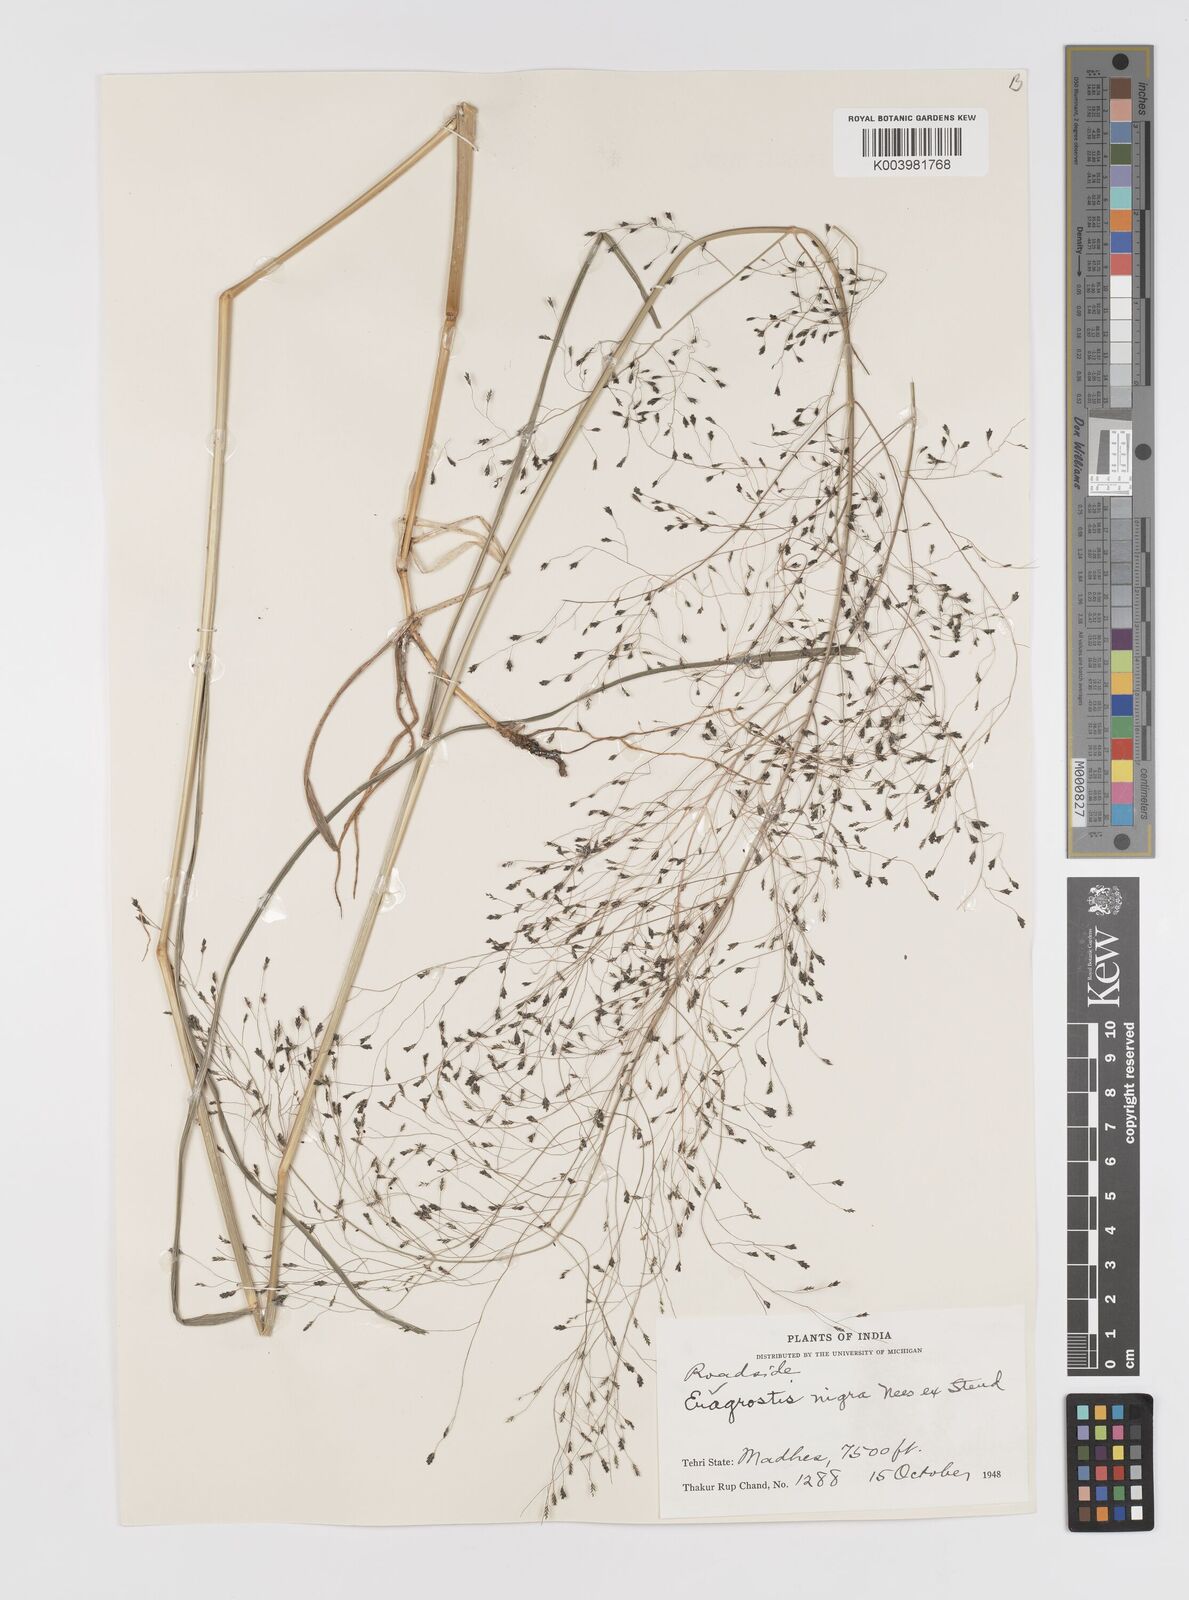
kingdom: Plantae
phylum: Tracheophyta
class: Liliopsida
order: Poales
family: Poaceae
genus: Eragrostis
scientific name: Eragrostis nigra
